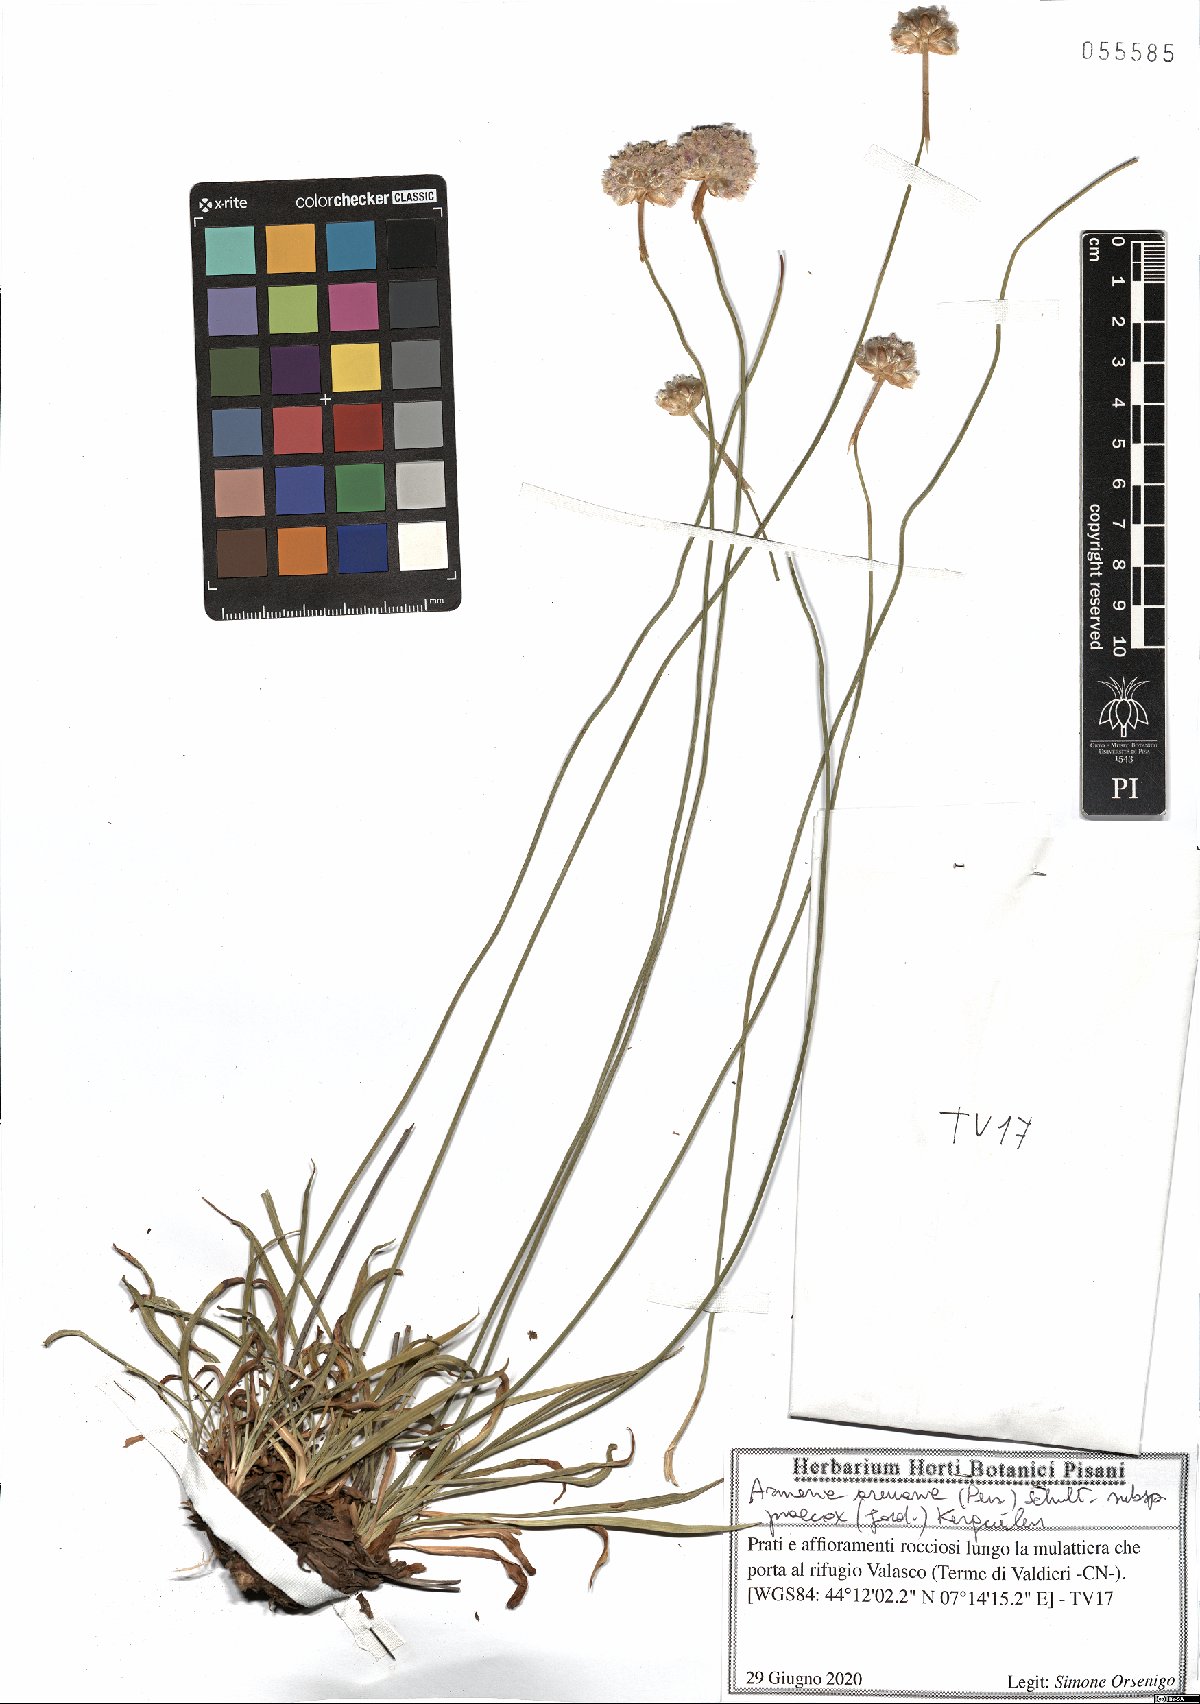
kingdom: Plantae
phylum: Tracheophyta
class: Magnoliopsida
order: Caryophyllales
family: Plumbaginaceae
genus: Armeria
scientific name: Armeria arenaria
